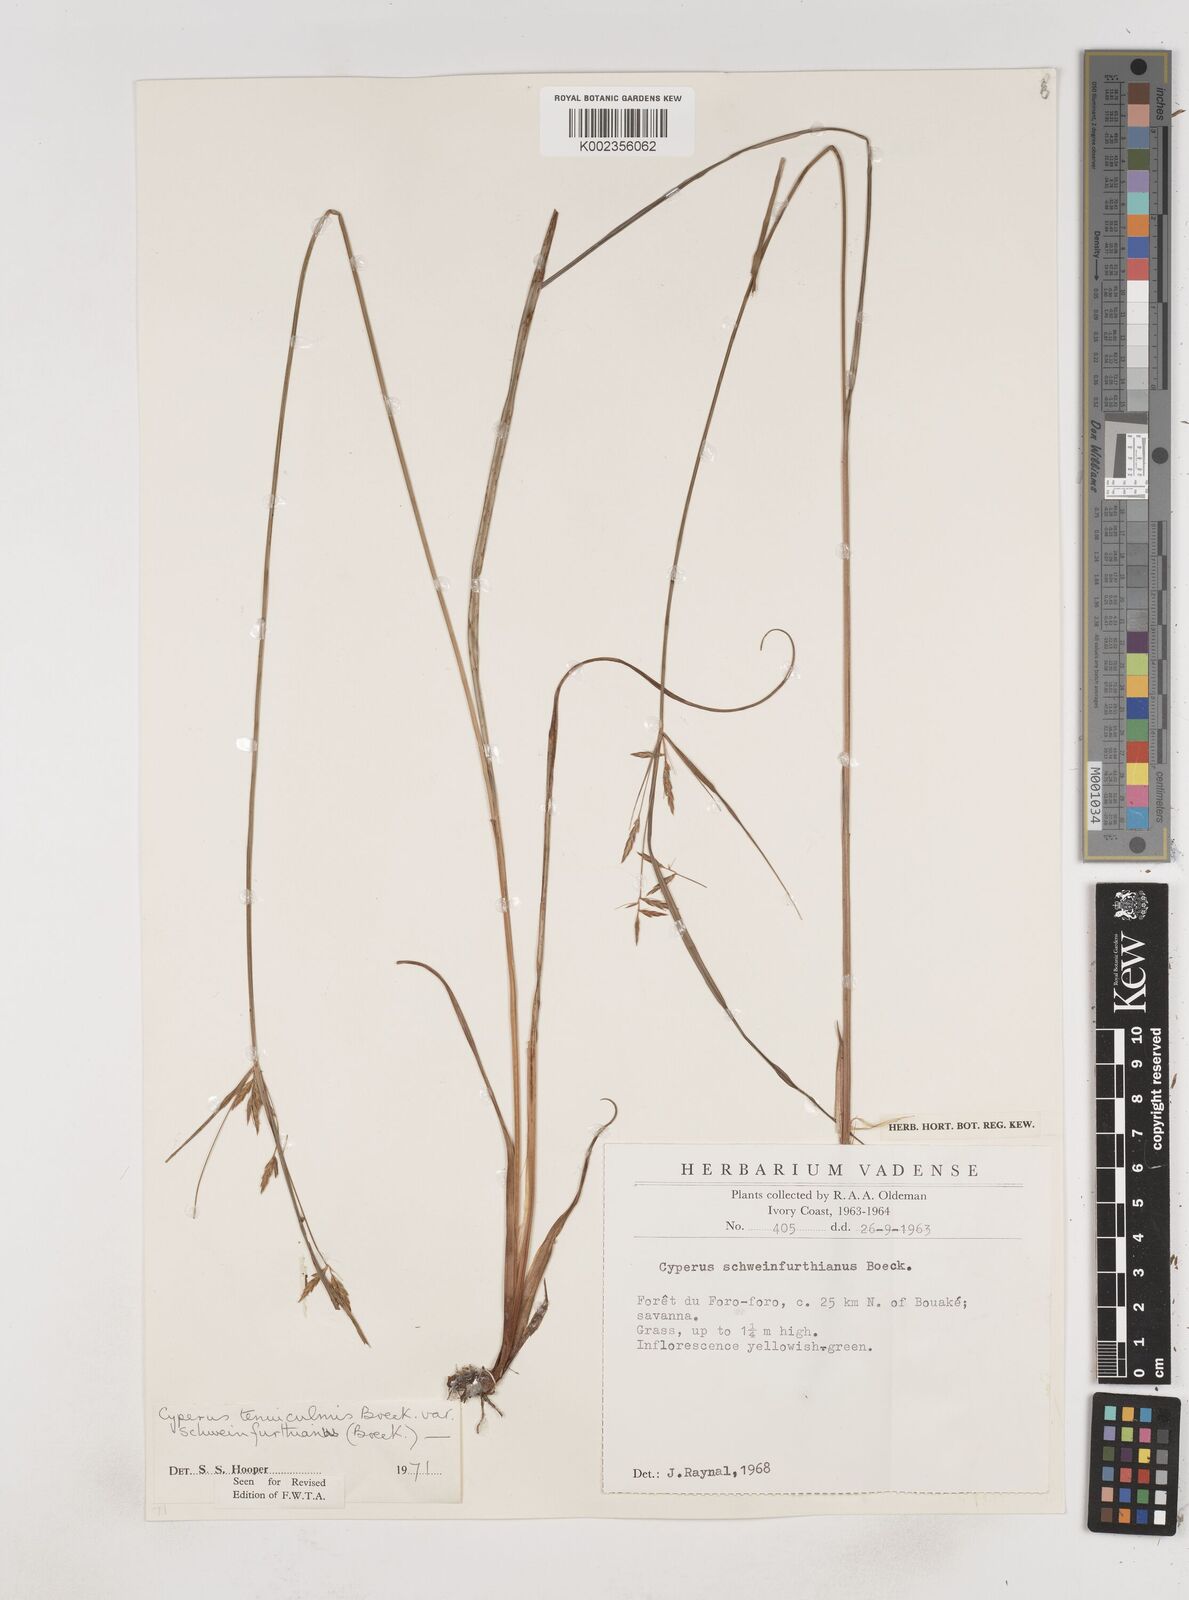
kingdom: Plantae
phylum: Tracheophyta
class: Liliopsida
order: Poales
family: Cyperaceae
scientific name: Cyperaceae
